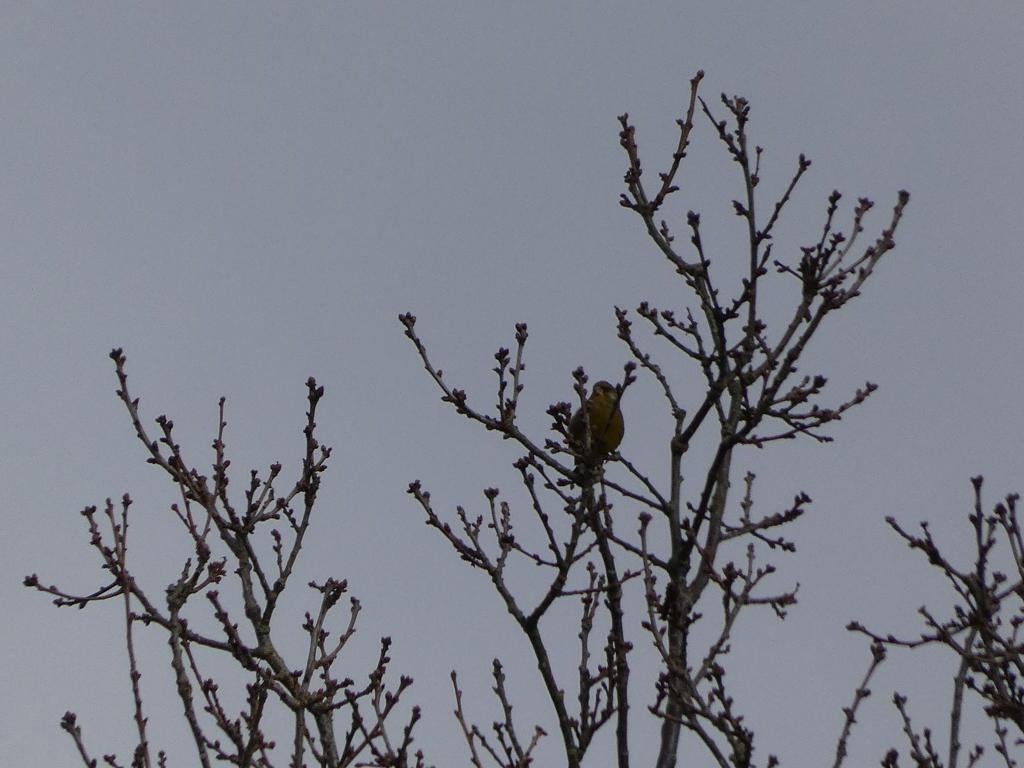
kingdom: Plantae
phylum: Tracheophyta
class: Liliopsida
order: Poales
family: Poaceae
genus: Chloris
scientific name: Chloris chloris
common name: Grønirisk
